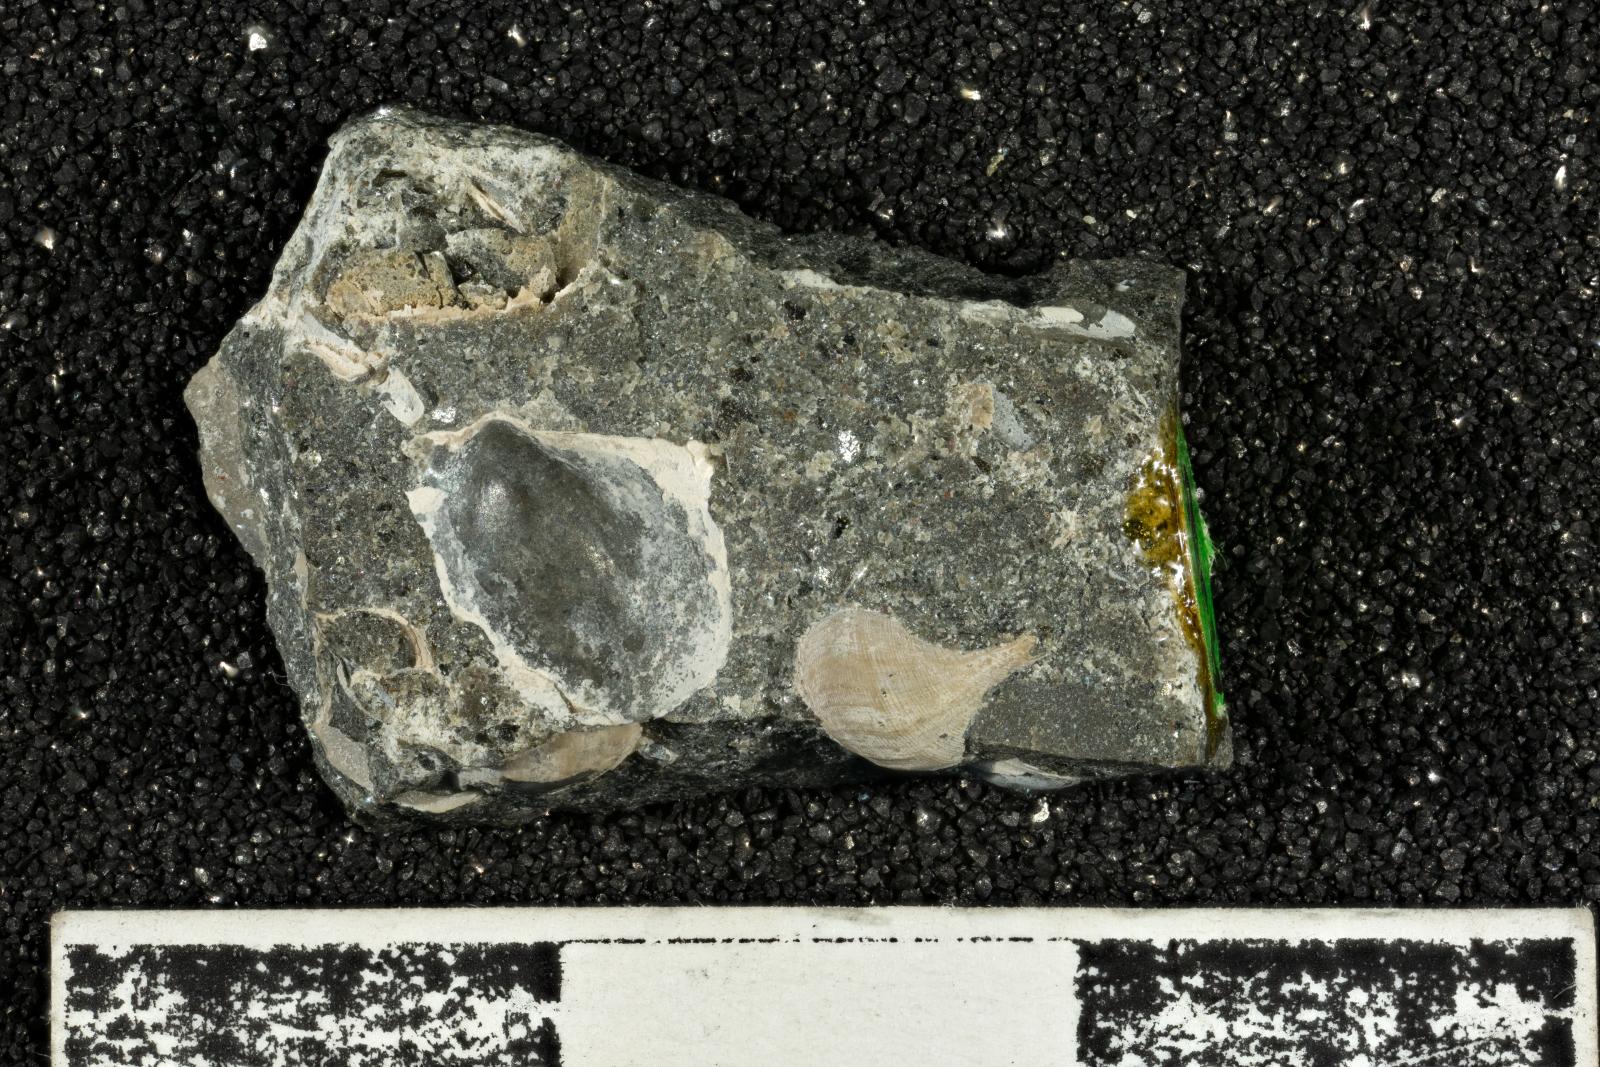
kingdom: Animalia
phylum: Mollusca
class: Bivalvia
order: Ostreida
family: Pteriidae
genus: Pteria
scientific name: Pteria pellucida
